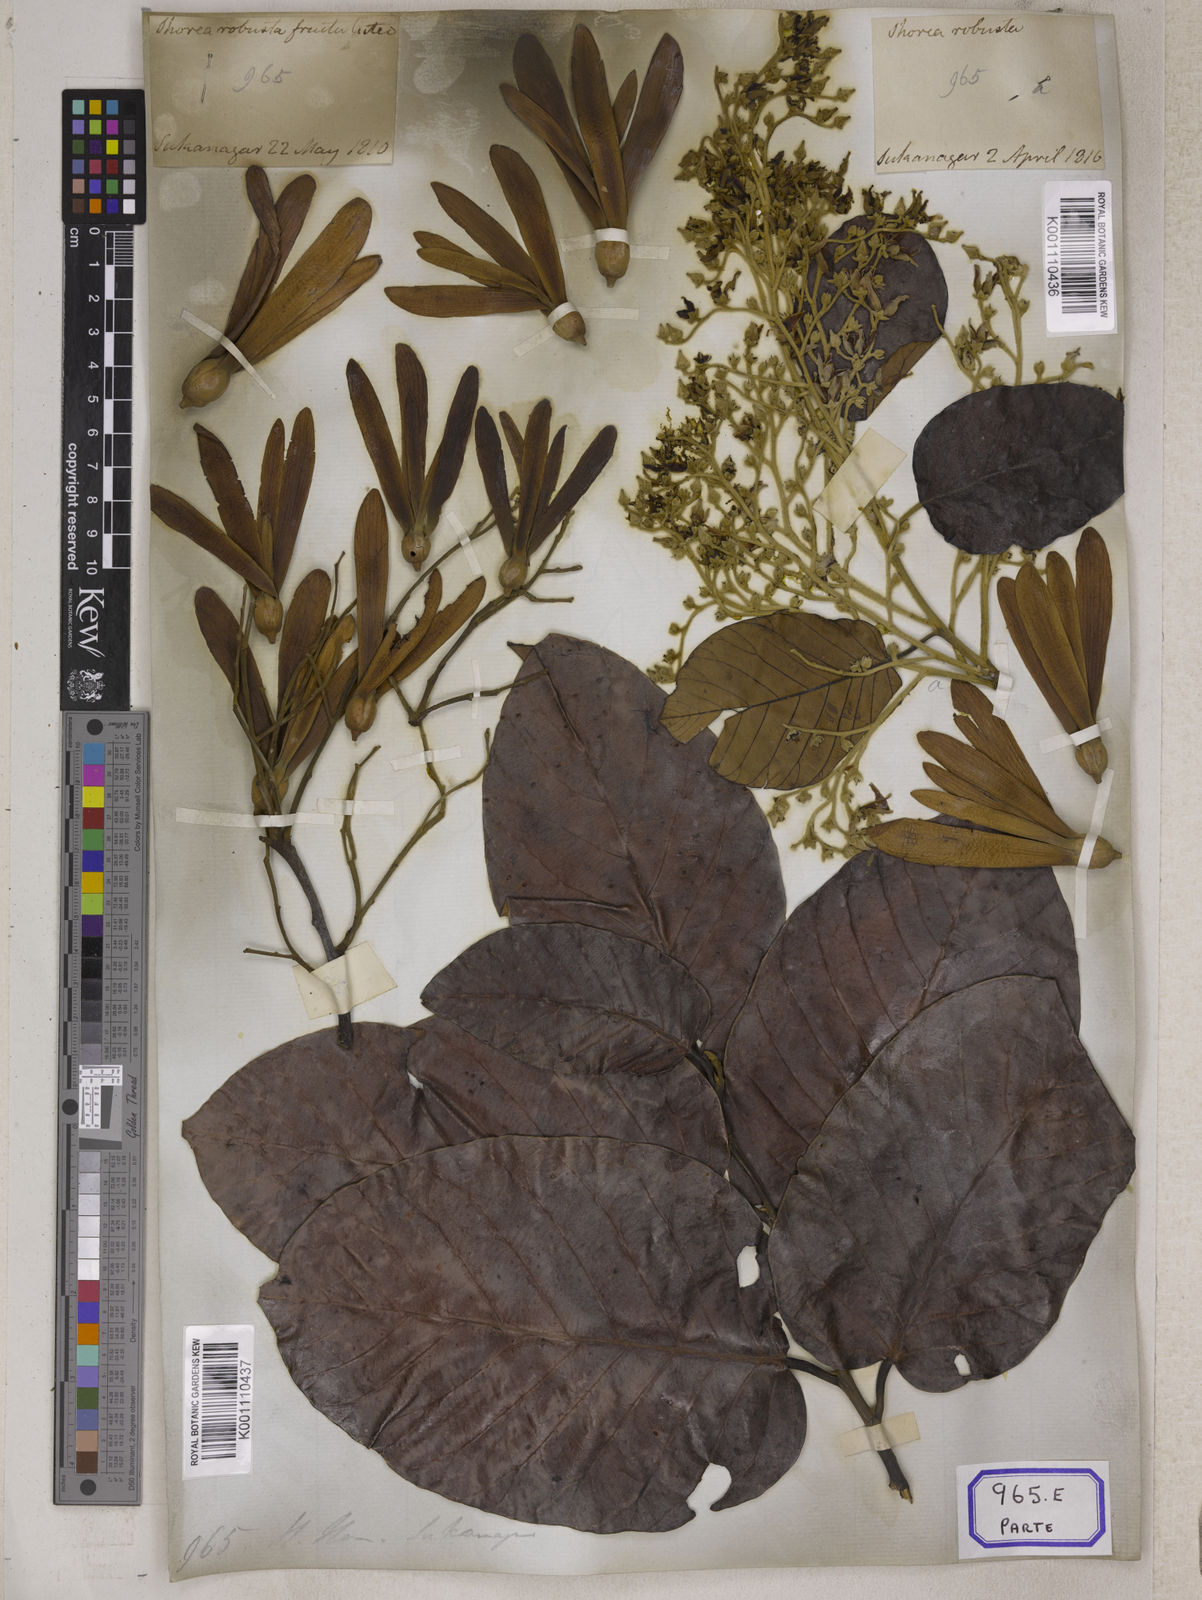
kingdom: Plantae
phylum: Tracheophyta
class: Magnoliopsida
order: Malvales
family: Dipterocarpaceae
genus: Shorea
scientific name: Shorea
